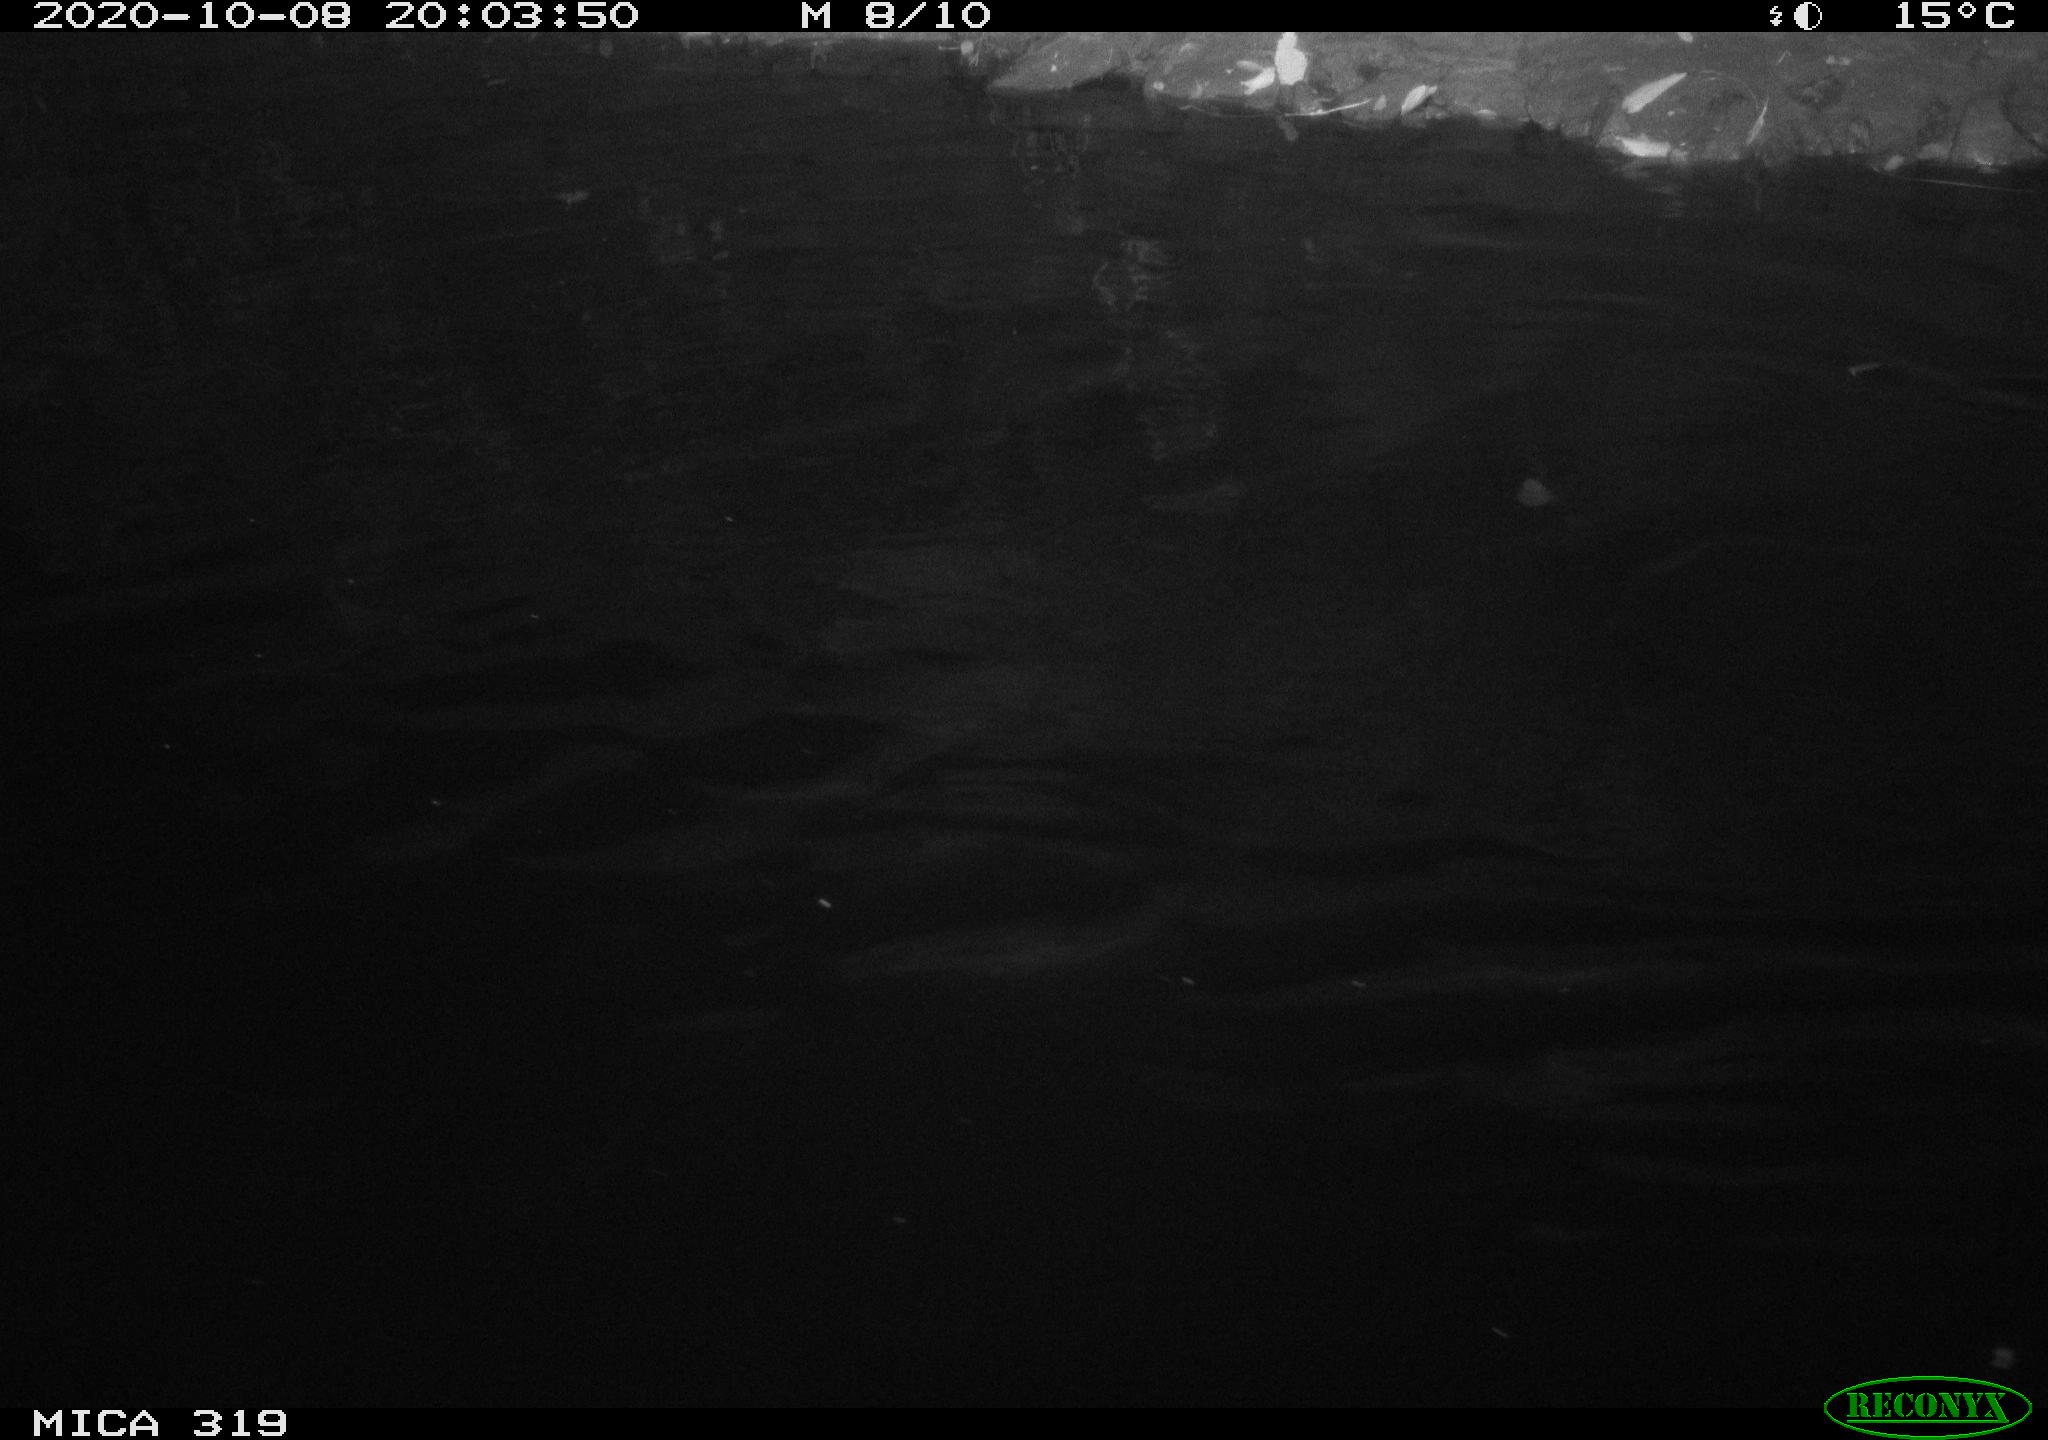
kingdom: Animalia
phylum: Chordata
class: Aves
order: Anseriformes
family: Anatidae
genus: Anas
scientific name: Anas platyrhynchos
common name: Mallard
